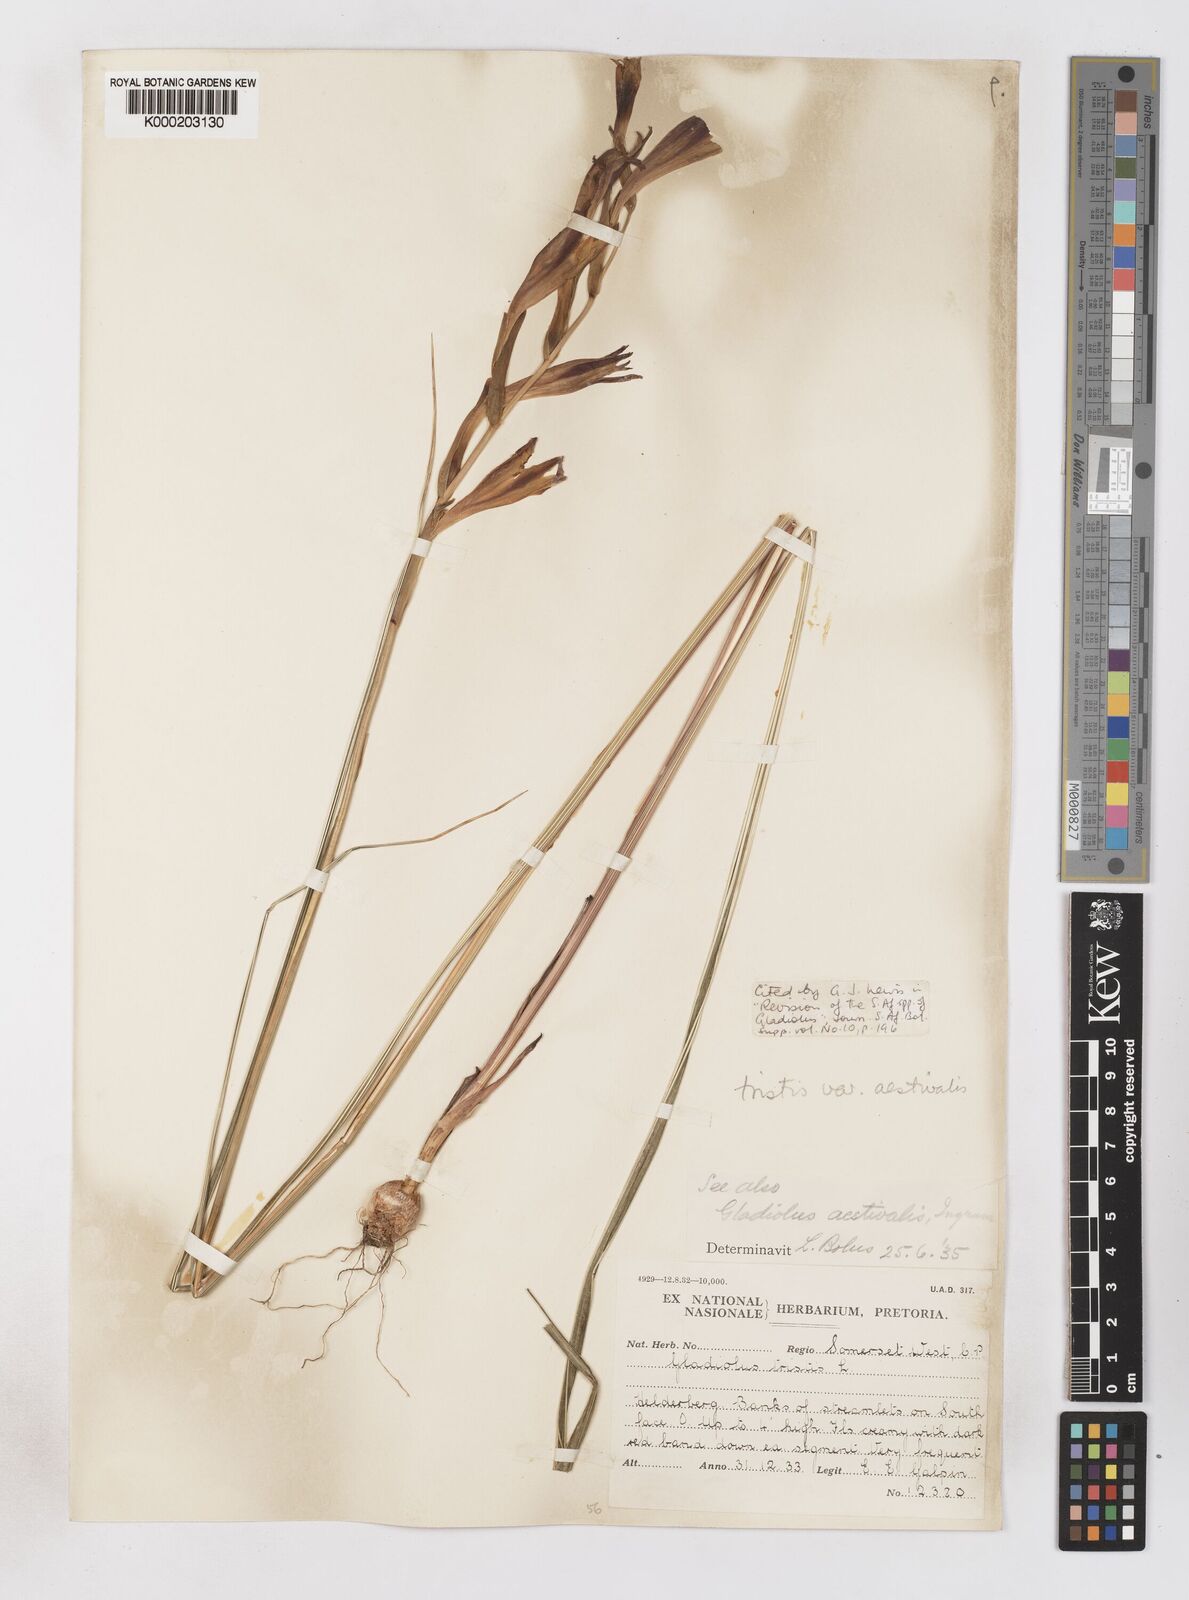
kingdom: Plantae
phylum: Tracheophyta
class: Liliopsida
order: Asparagales
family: Iridaceae
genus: Gladiolus
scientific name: Gladiolus tristis
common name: Ever-flowering gladiolus
